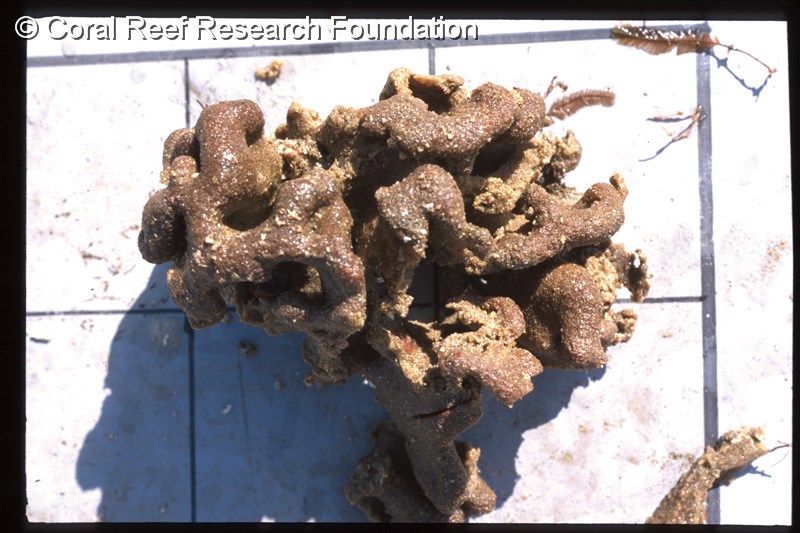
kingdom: Animalia
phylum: Chordata
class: Ascidiacea
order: Aplousobranchia
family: Polyclinidae
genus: Aplidium
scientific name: Aplidium pantherinum
